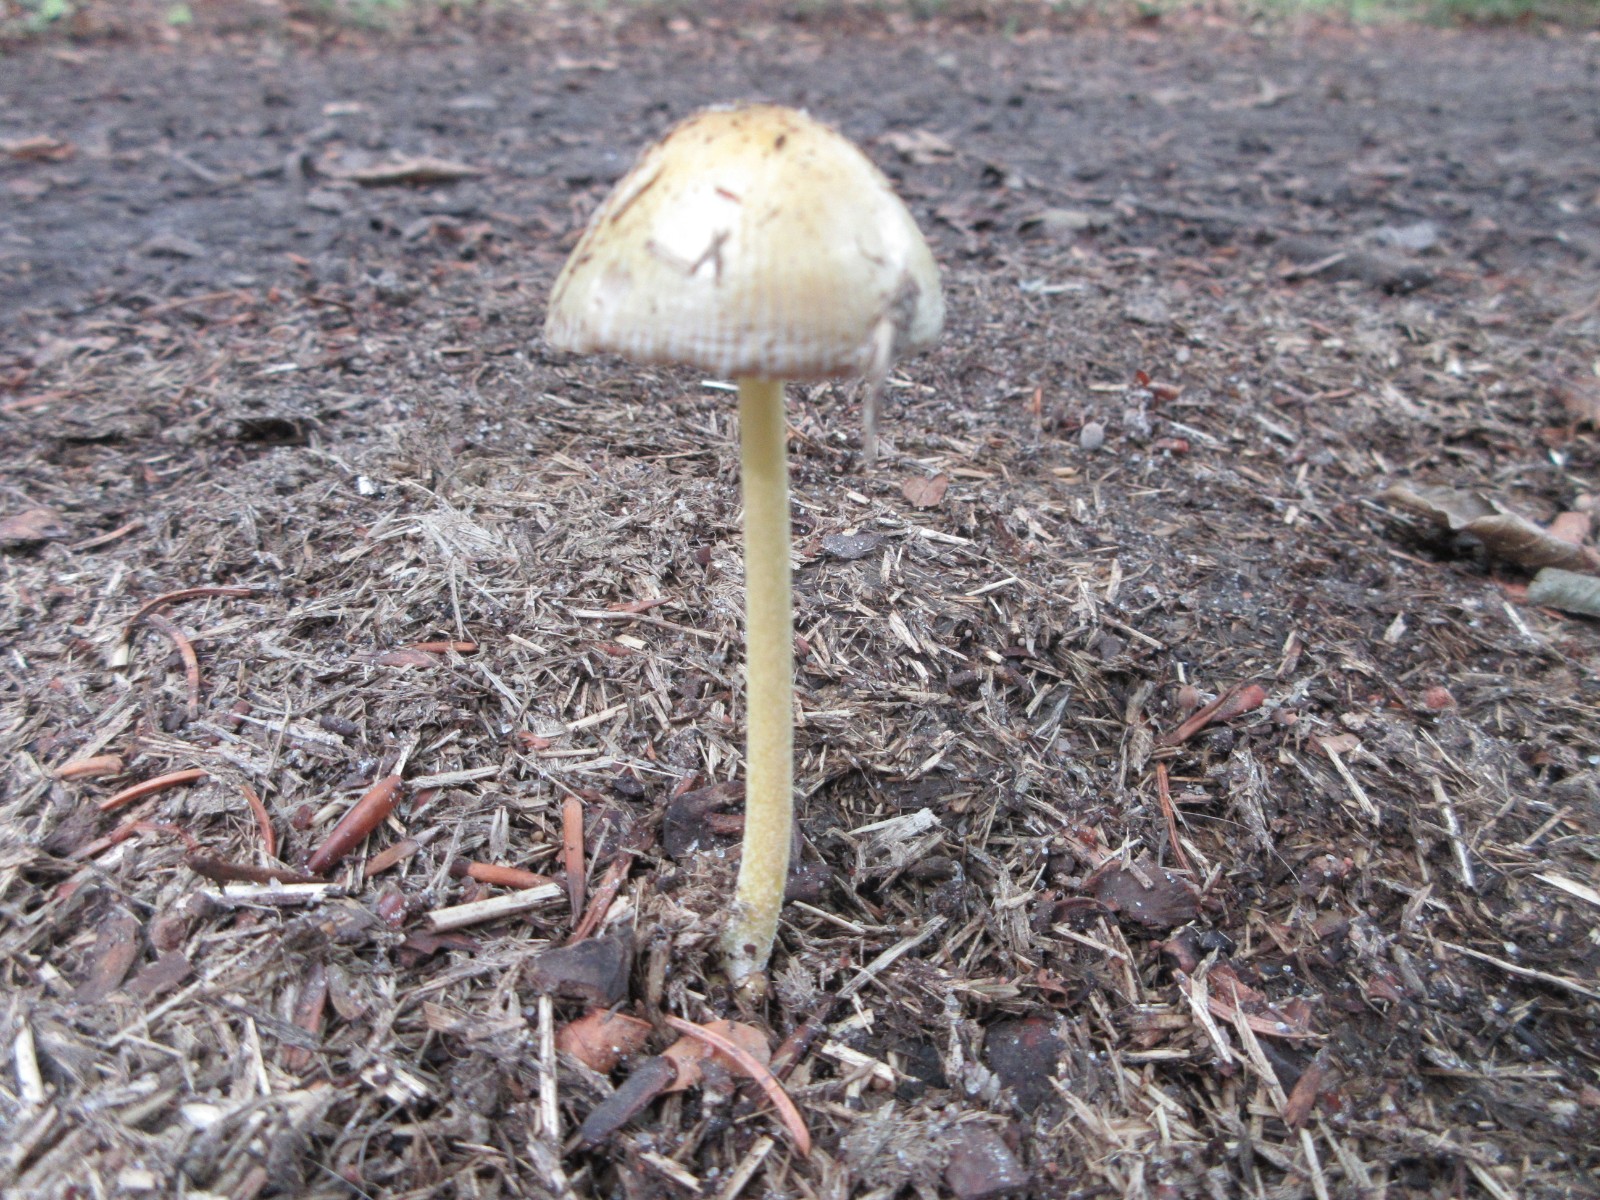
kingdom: Fungi
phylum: Basidiomycota
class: Agaricomycetes
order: Agaricales
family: Bolbitiaceae
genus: Bolbitius
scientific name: Bolbitius titubans
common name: almindelig gulhat
